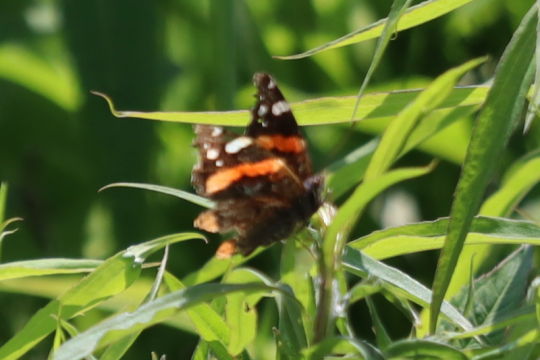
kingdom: Animalia
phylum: Arthropoda
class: Insecta
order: Lepidoptera
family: Nymphalidae
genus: Vanessa
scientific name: Vanessa atalanta
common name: Red Admiral
